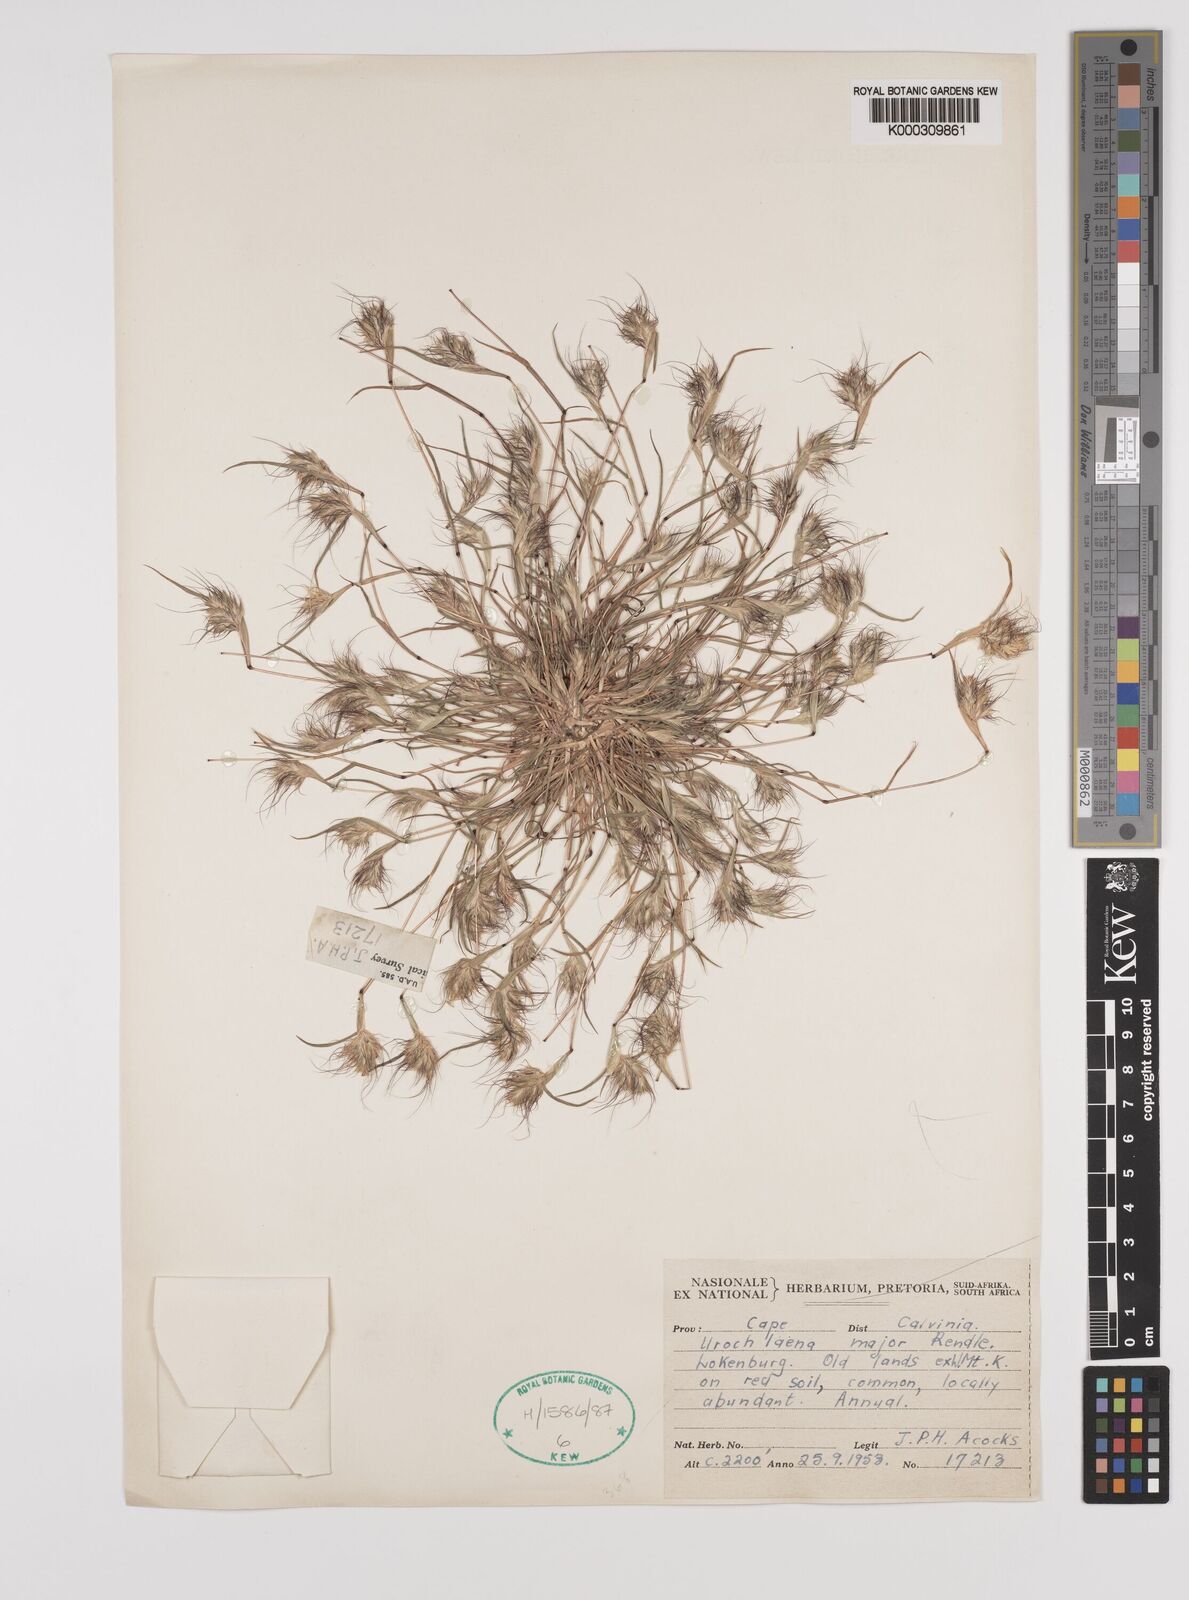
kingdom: Plantae
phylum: Tracheophyta
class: Liliopsida
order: Poales
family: Poaceae
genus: Tribolium
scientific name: Tribolium pusillum
